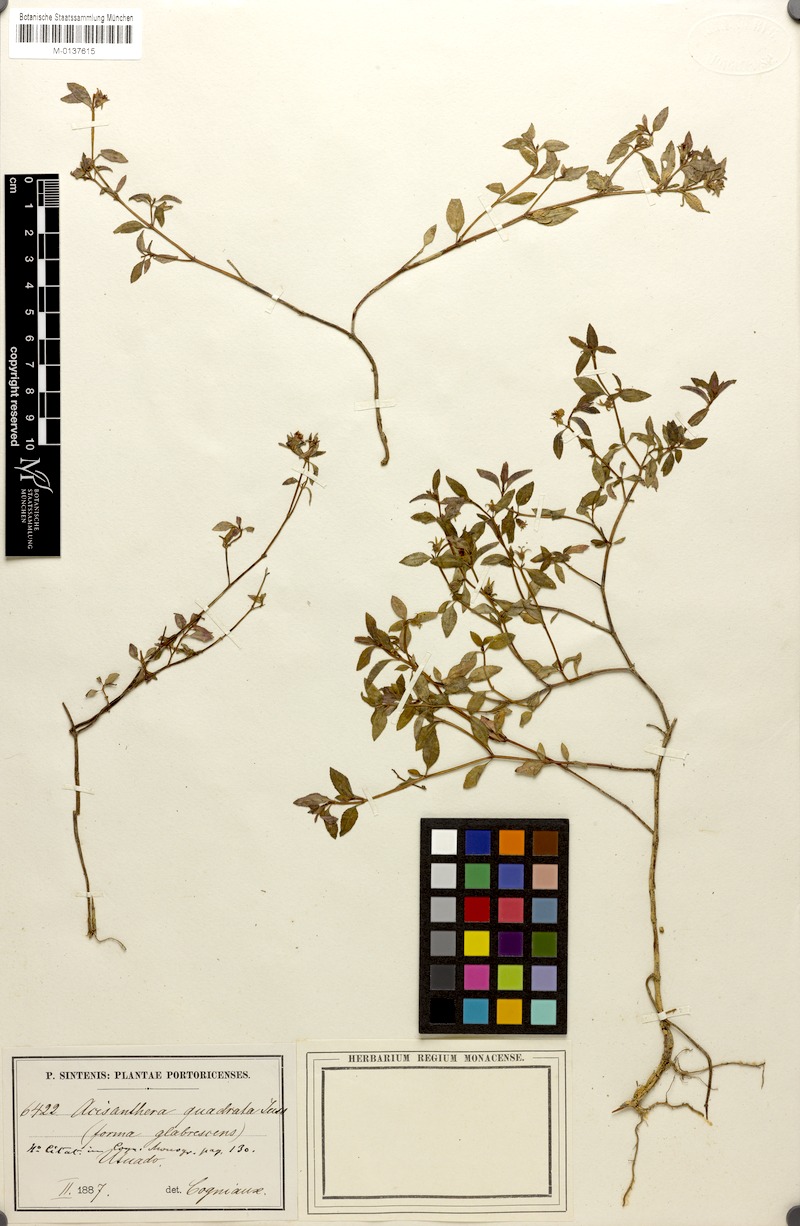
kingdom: Plantae
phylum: Tracheophyta
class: Magnoliopsida
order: Myrtales
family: Melastomataceae
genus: Acisanthera
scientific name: Acisanthera quadrata
